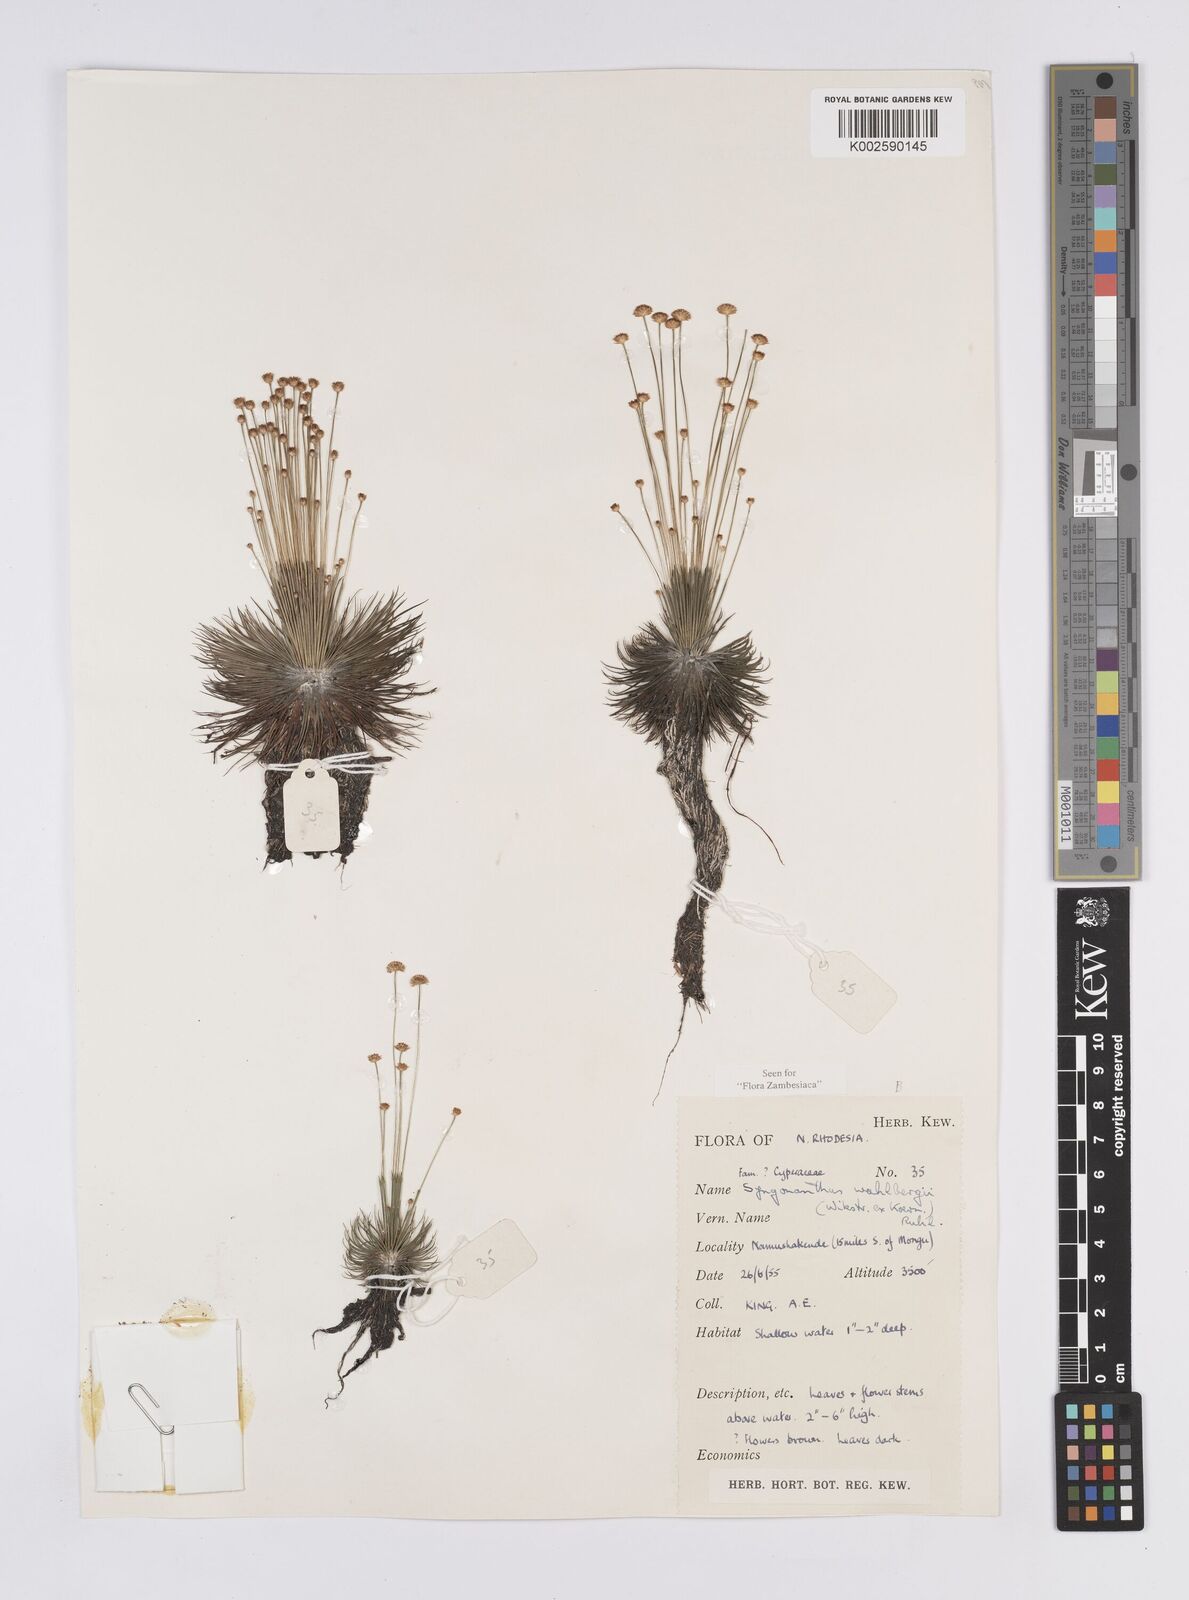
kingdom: Plantae
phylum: Tracheophyta
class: Liliopsida
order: Poales
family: Eriocaulaceae
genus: Syngonanthus
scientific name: Syngonanthus wahlbergii
